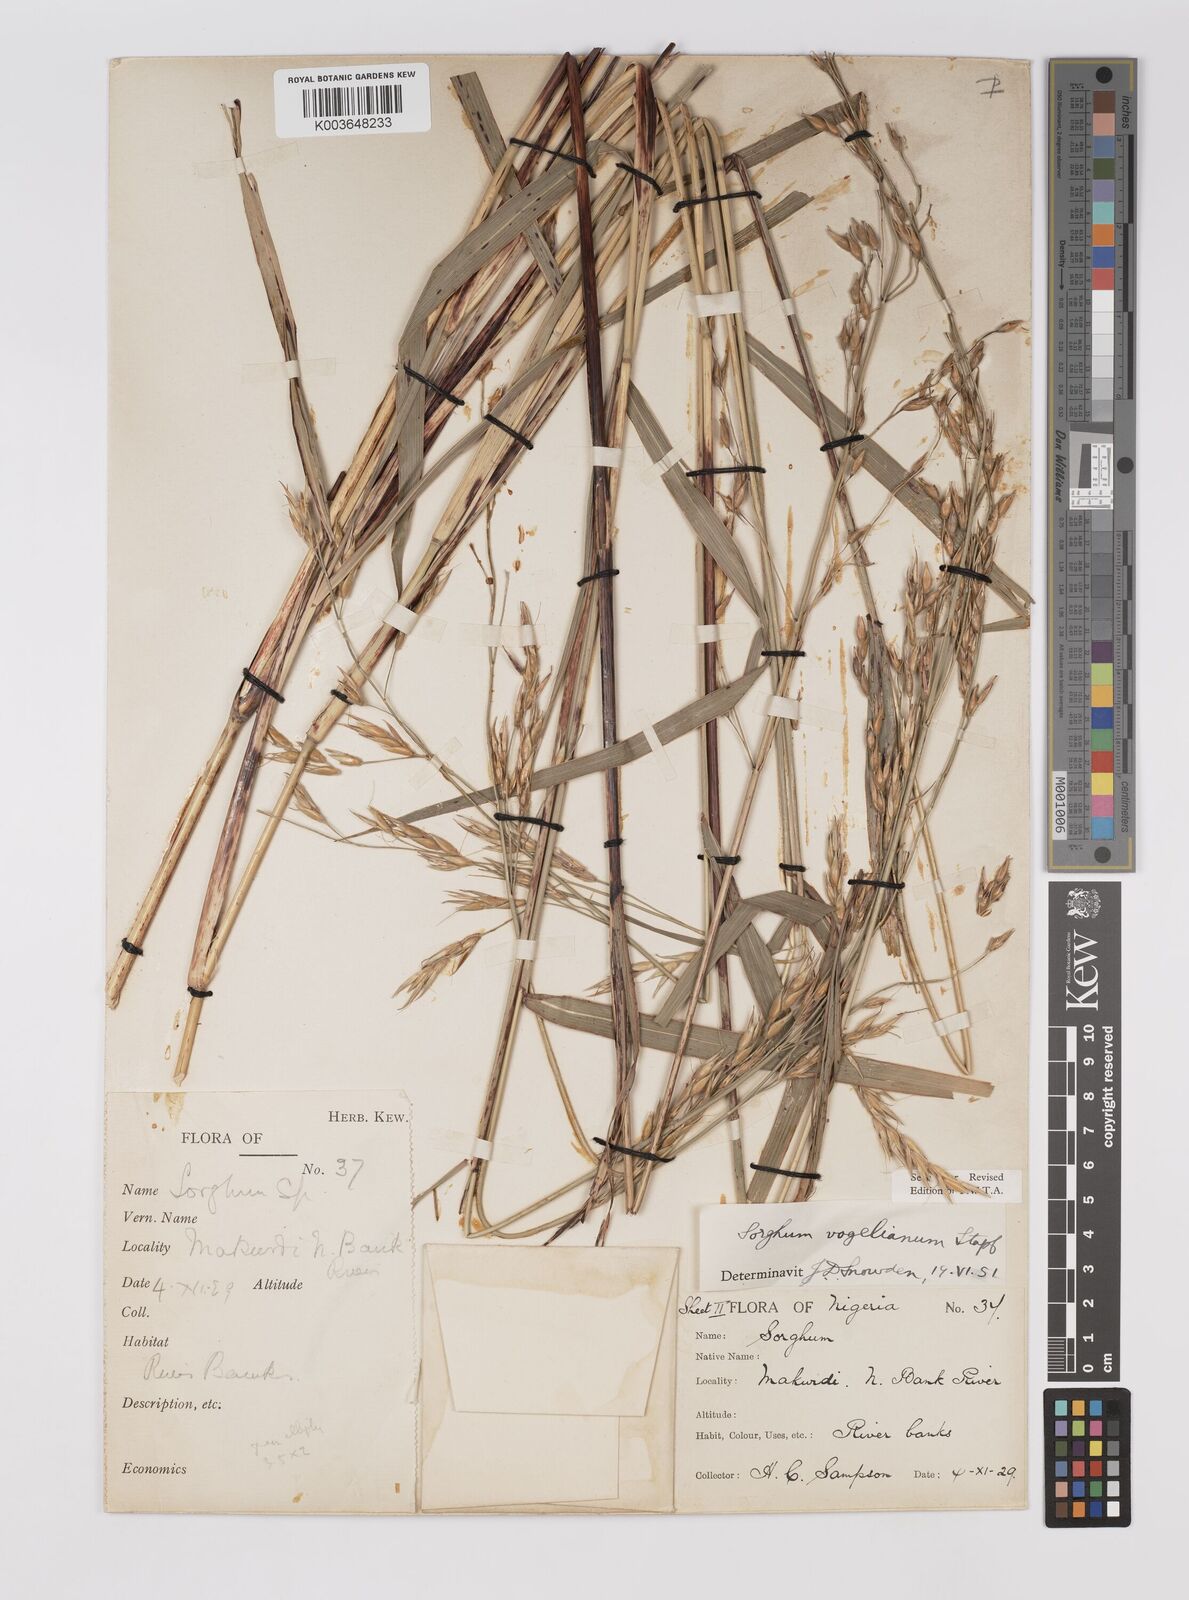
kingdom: Plantae
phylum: Tracheophyta
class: Liliopsida
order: Poales
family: Poaceae
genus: Sorghum
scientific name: Sorghum arundinaceum
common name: Sorghum
